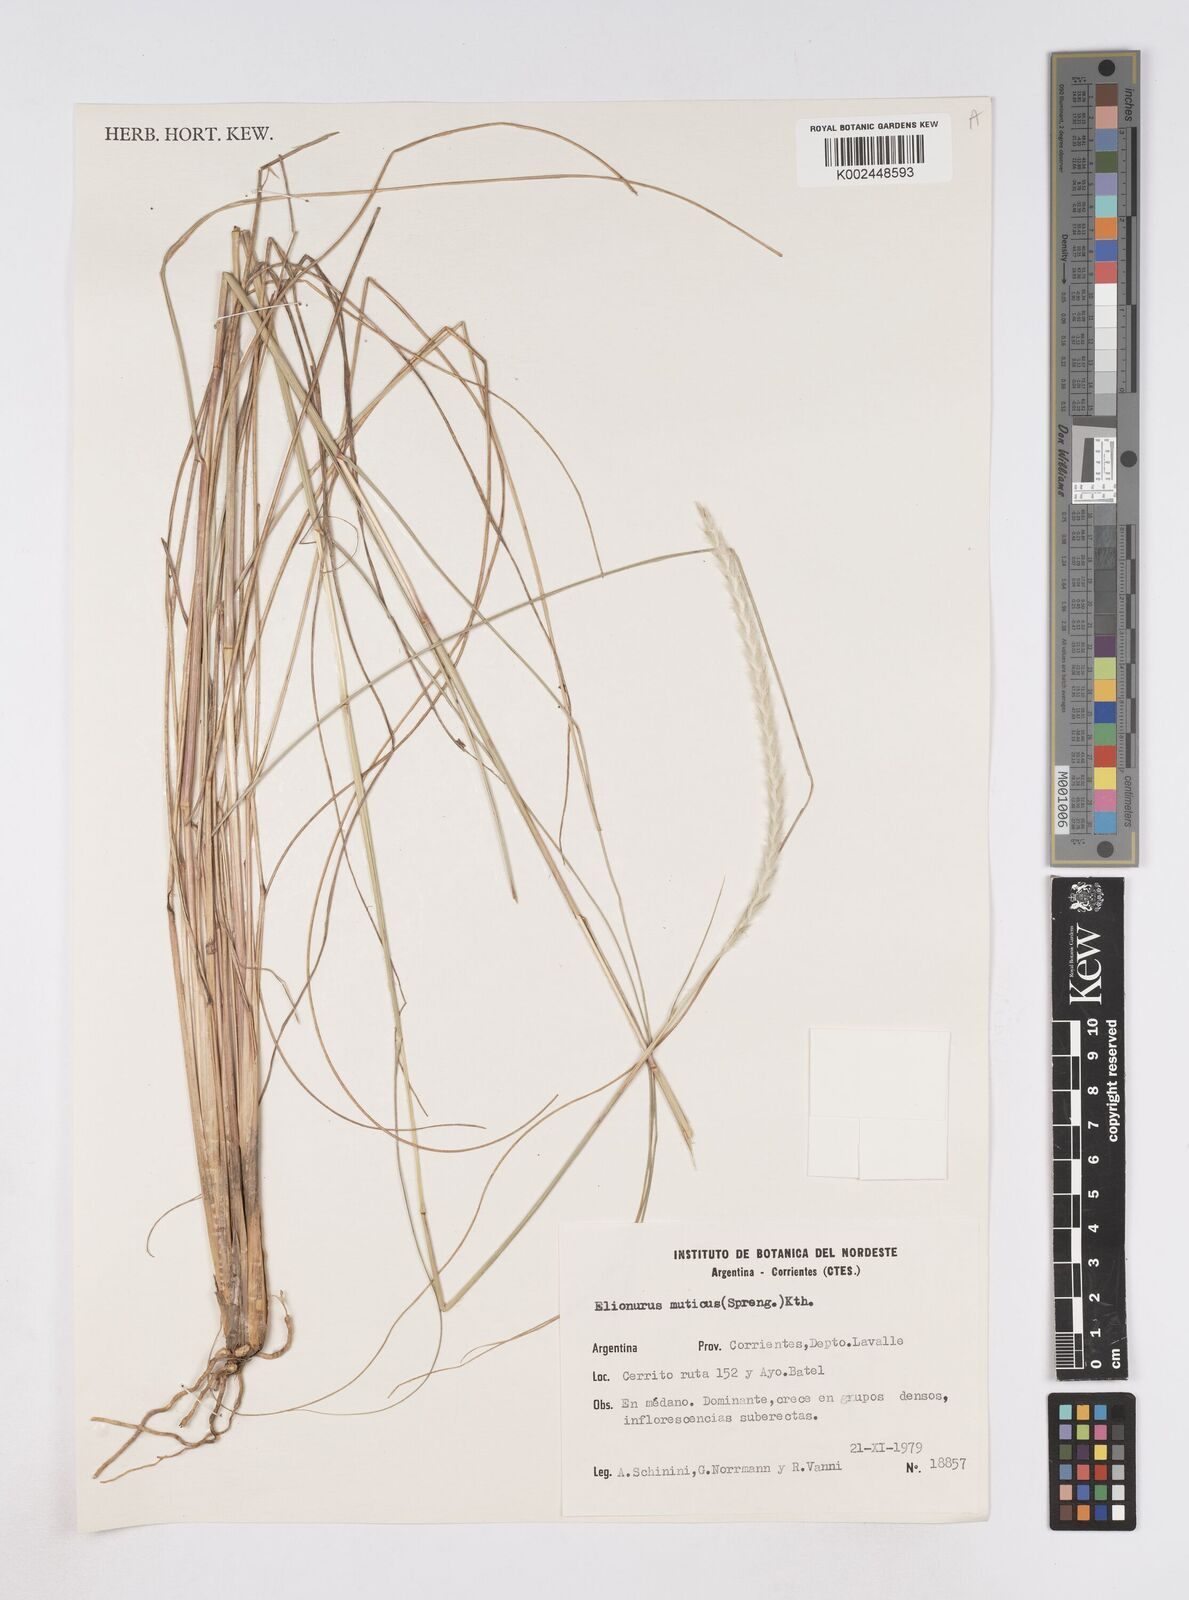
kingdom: Plantae
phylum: Tracheophyta
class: Liliopsida
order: Poales
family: Poaceae
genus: Elionurus
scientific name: Elionurus muticus
